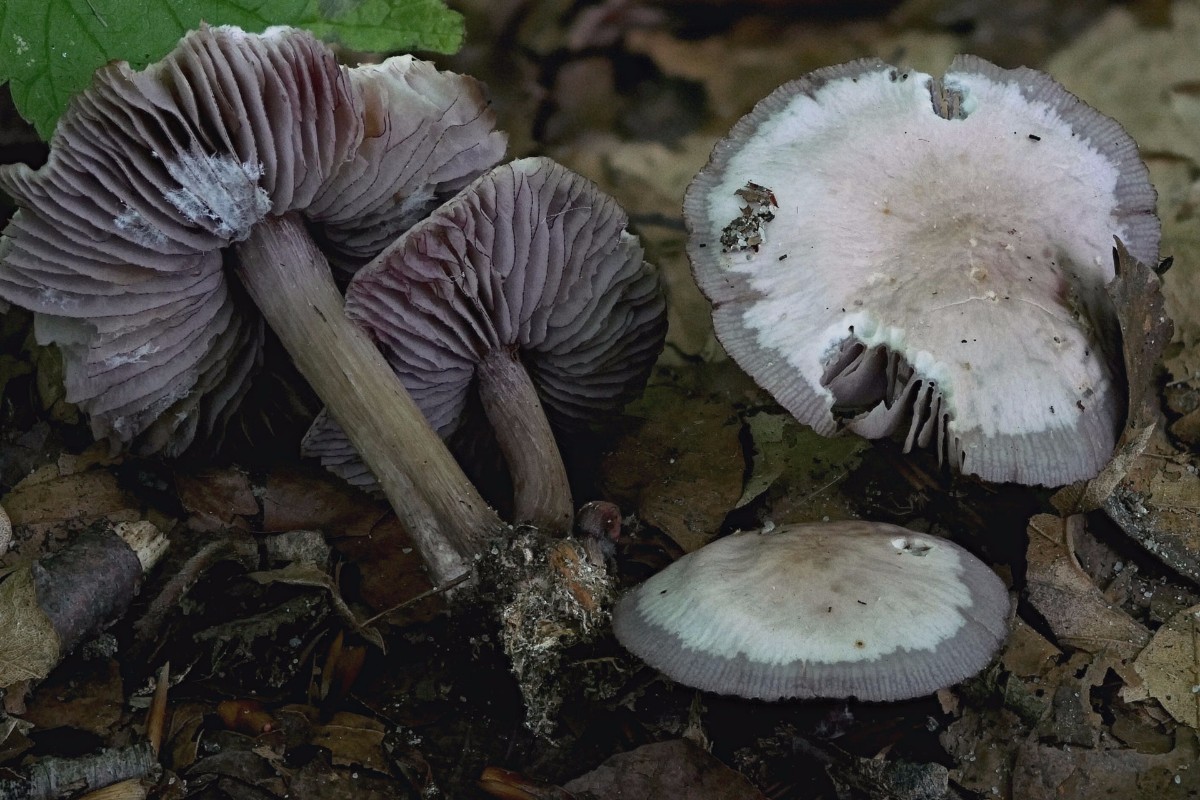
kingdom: Fungi
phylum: Basidiomycota
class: Agaricomycetes
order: Agaricales
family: Mycenaceae
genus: Mycena
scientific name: Mycena pelianthina
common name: mørkbladet huesvamp
